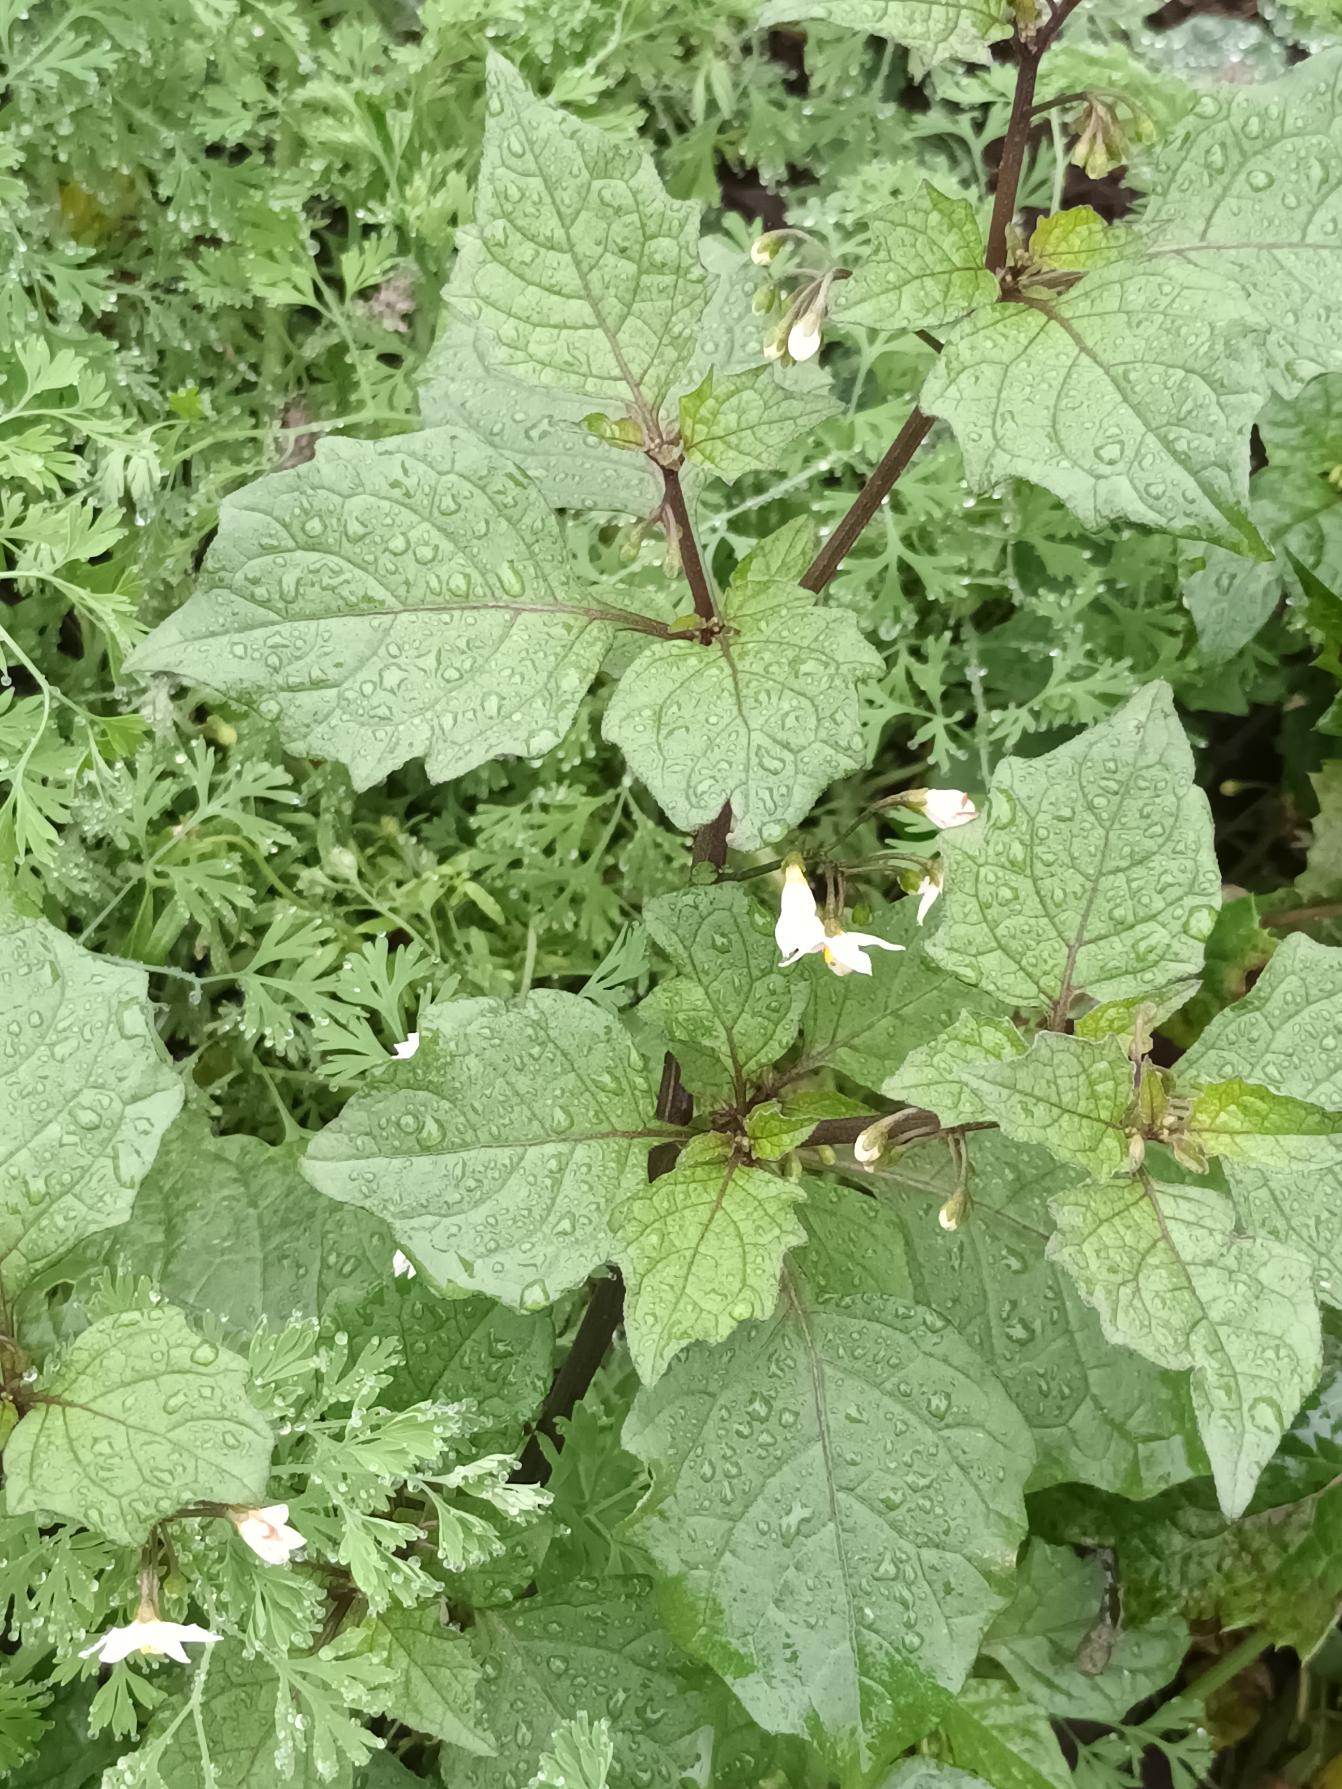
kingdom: Plantae
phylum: Tracheophyta
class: Magnoliopsida
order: Solanales
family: Solanaceae
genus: Solanum
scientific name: Solanum nigrum
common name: Sort natskygge
